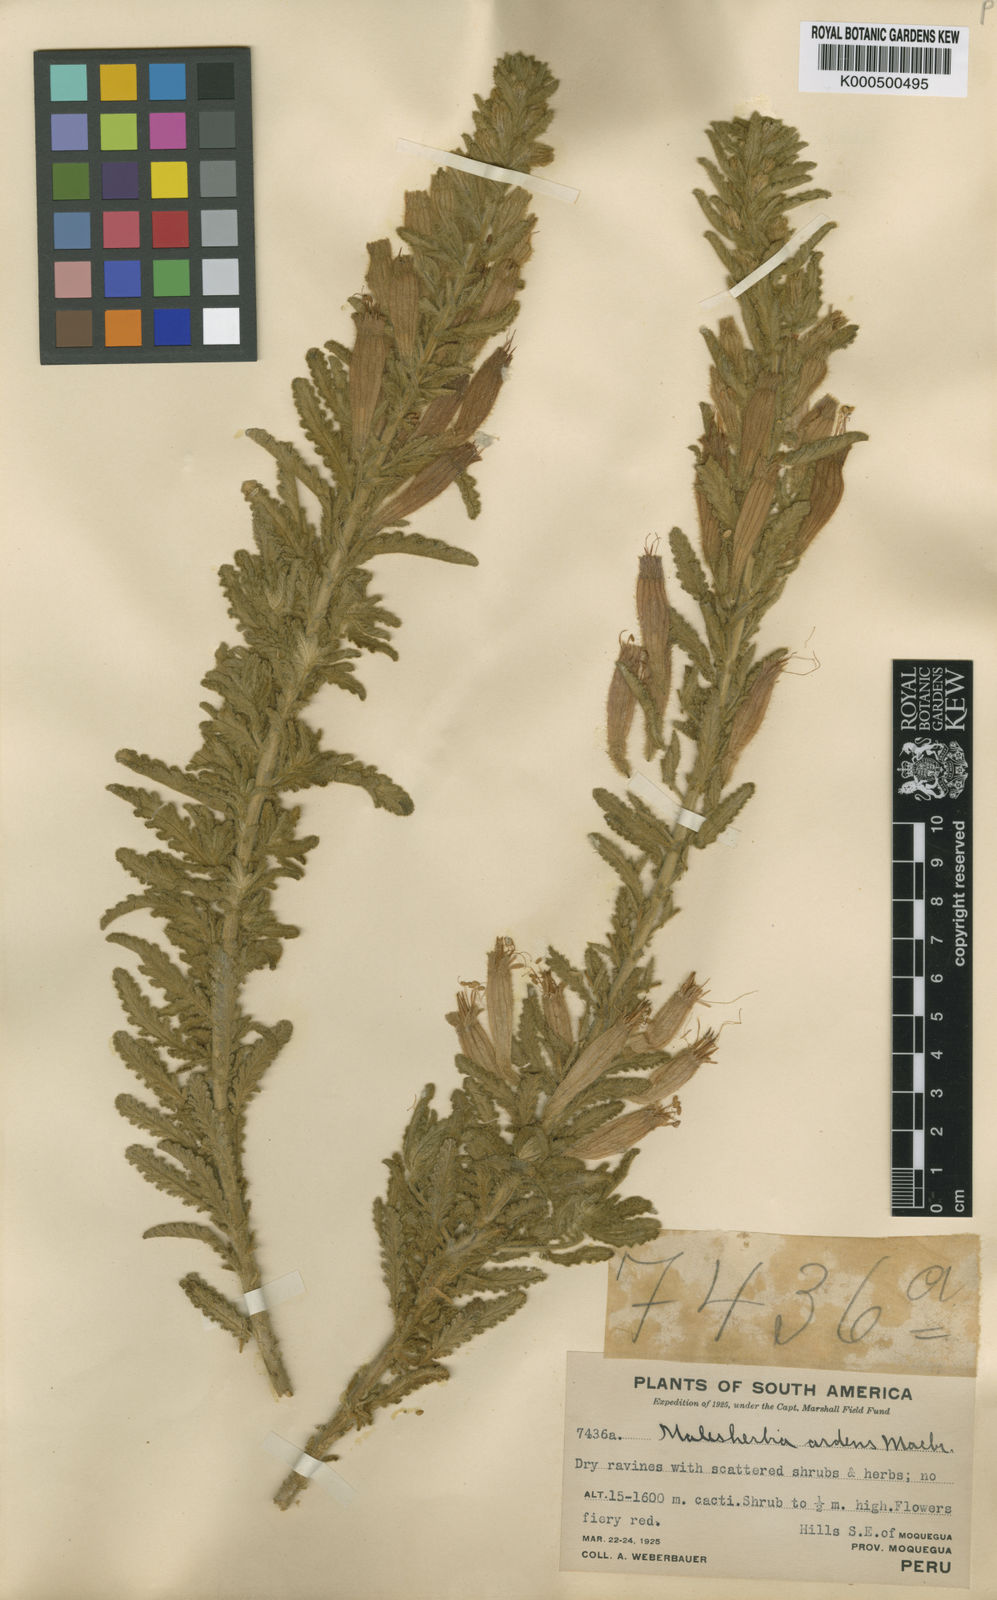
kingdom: Plantae
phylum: Tracheophyta
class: Magnoliopsida
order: Malpighiales
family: Malesherbiaceae
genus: Malesherbia
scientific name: Malesherbia ardens
